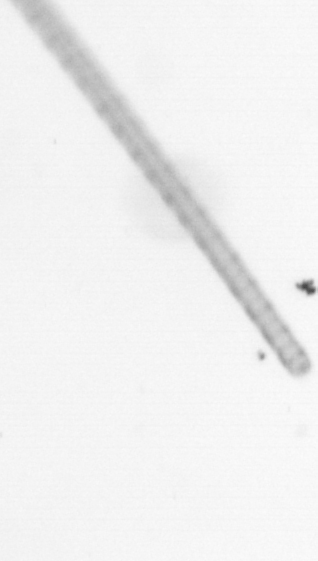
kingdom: Chromista
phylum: Ochrophyta
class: Bacillariophyceae
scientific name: Bacillariophyceae
